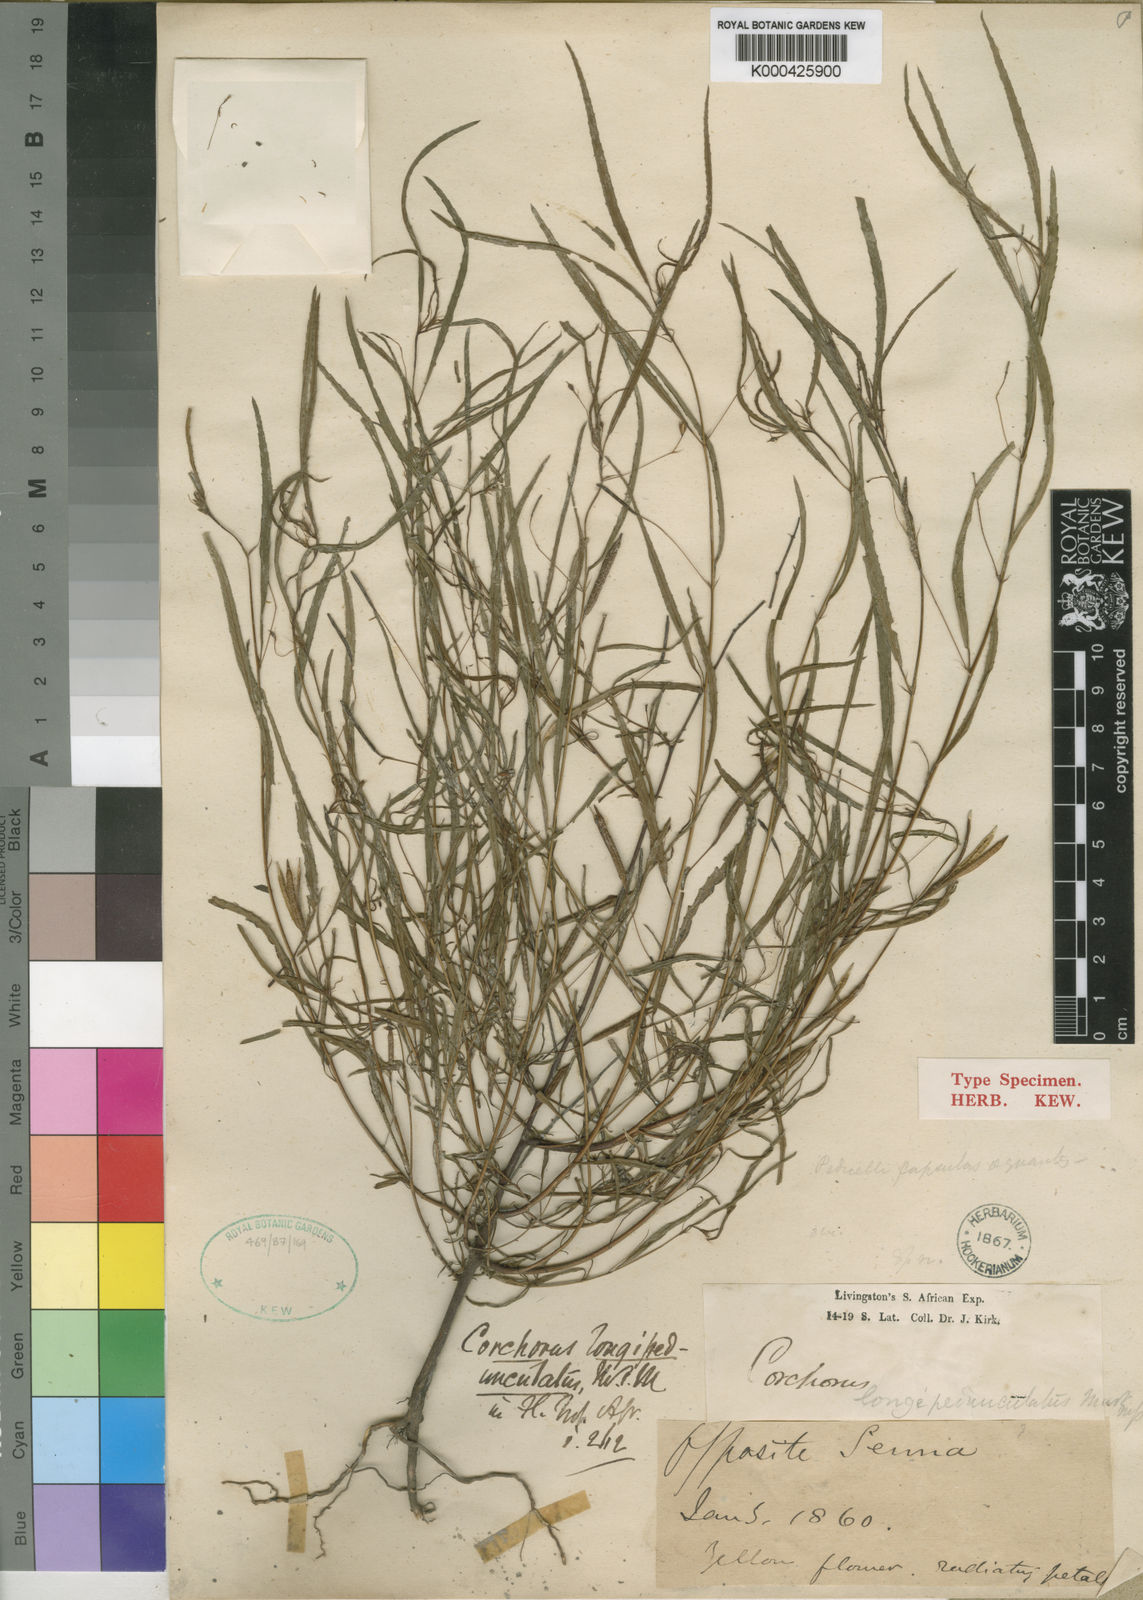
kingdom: Plantae
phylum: Tracheophyta
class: Magnoliopsida
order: Malvales
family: Malvaceae
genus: Corchorus
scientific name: Corchorus longipedunculatus
